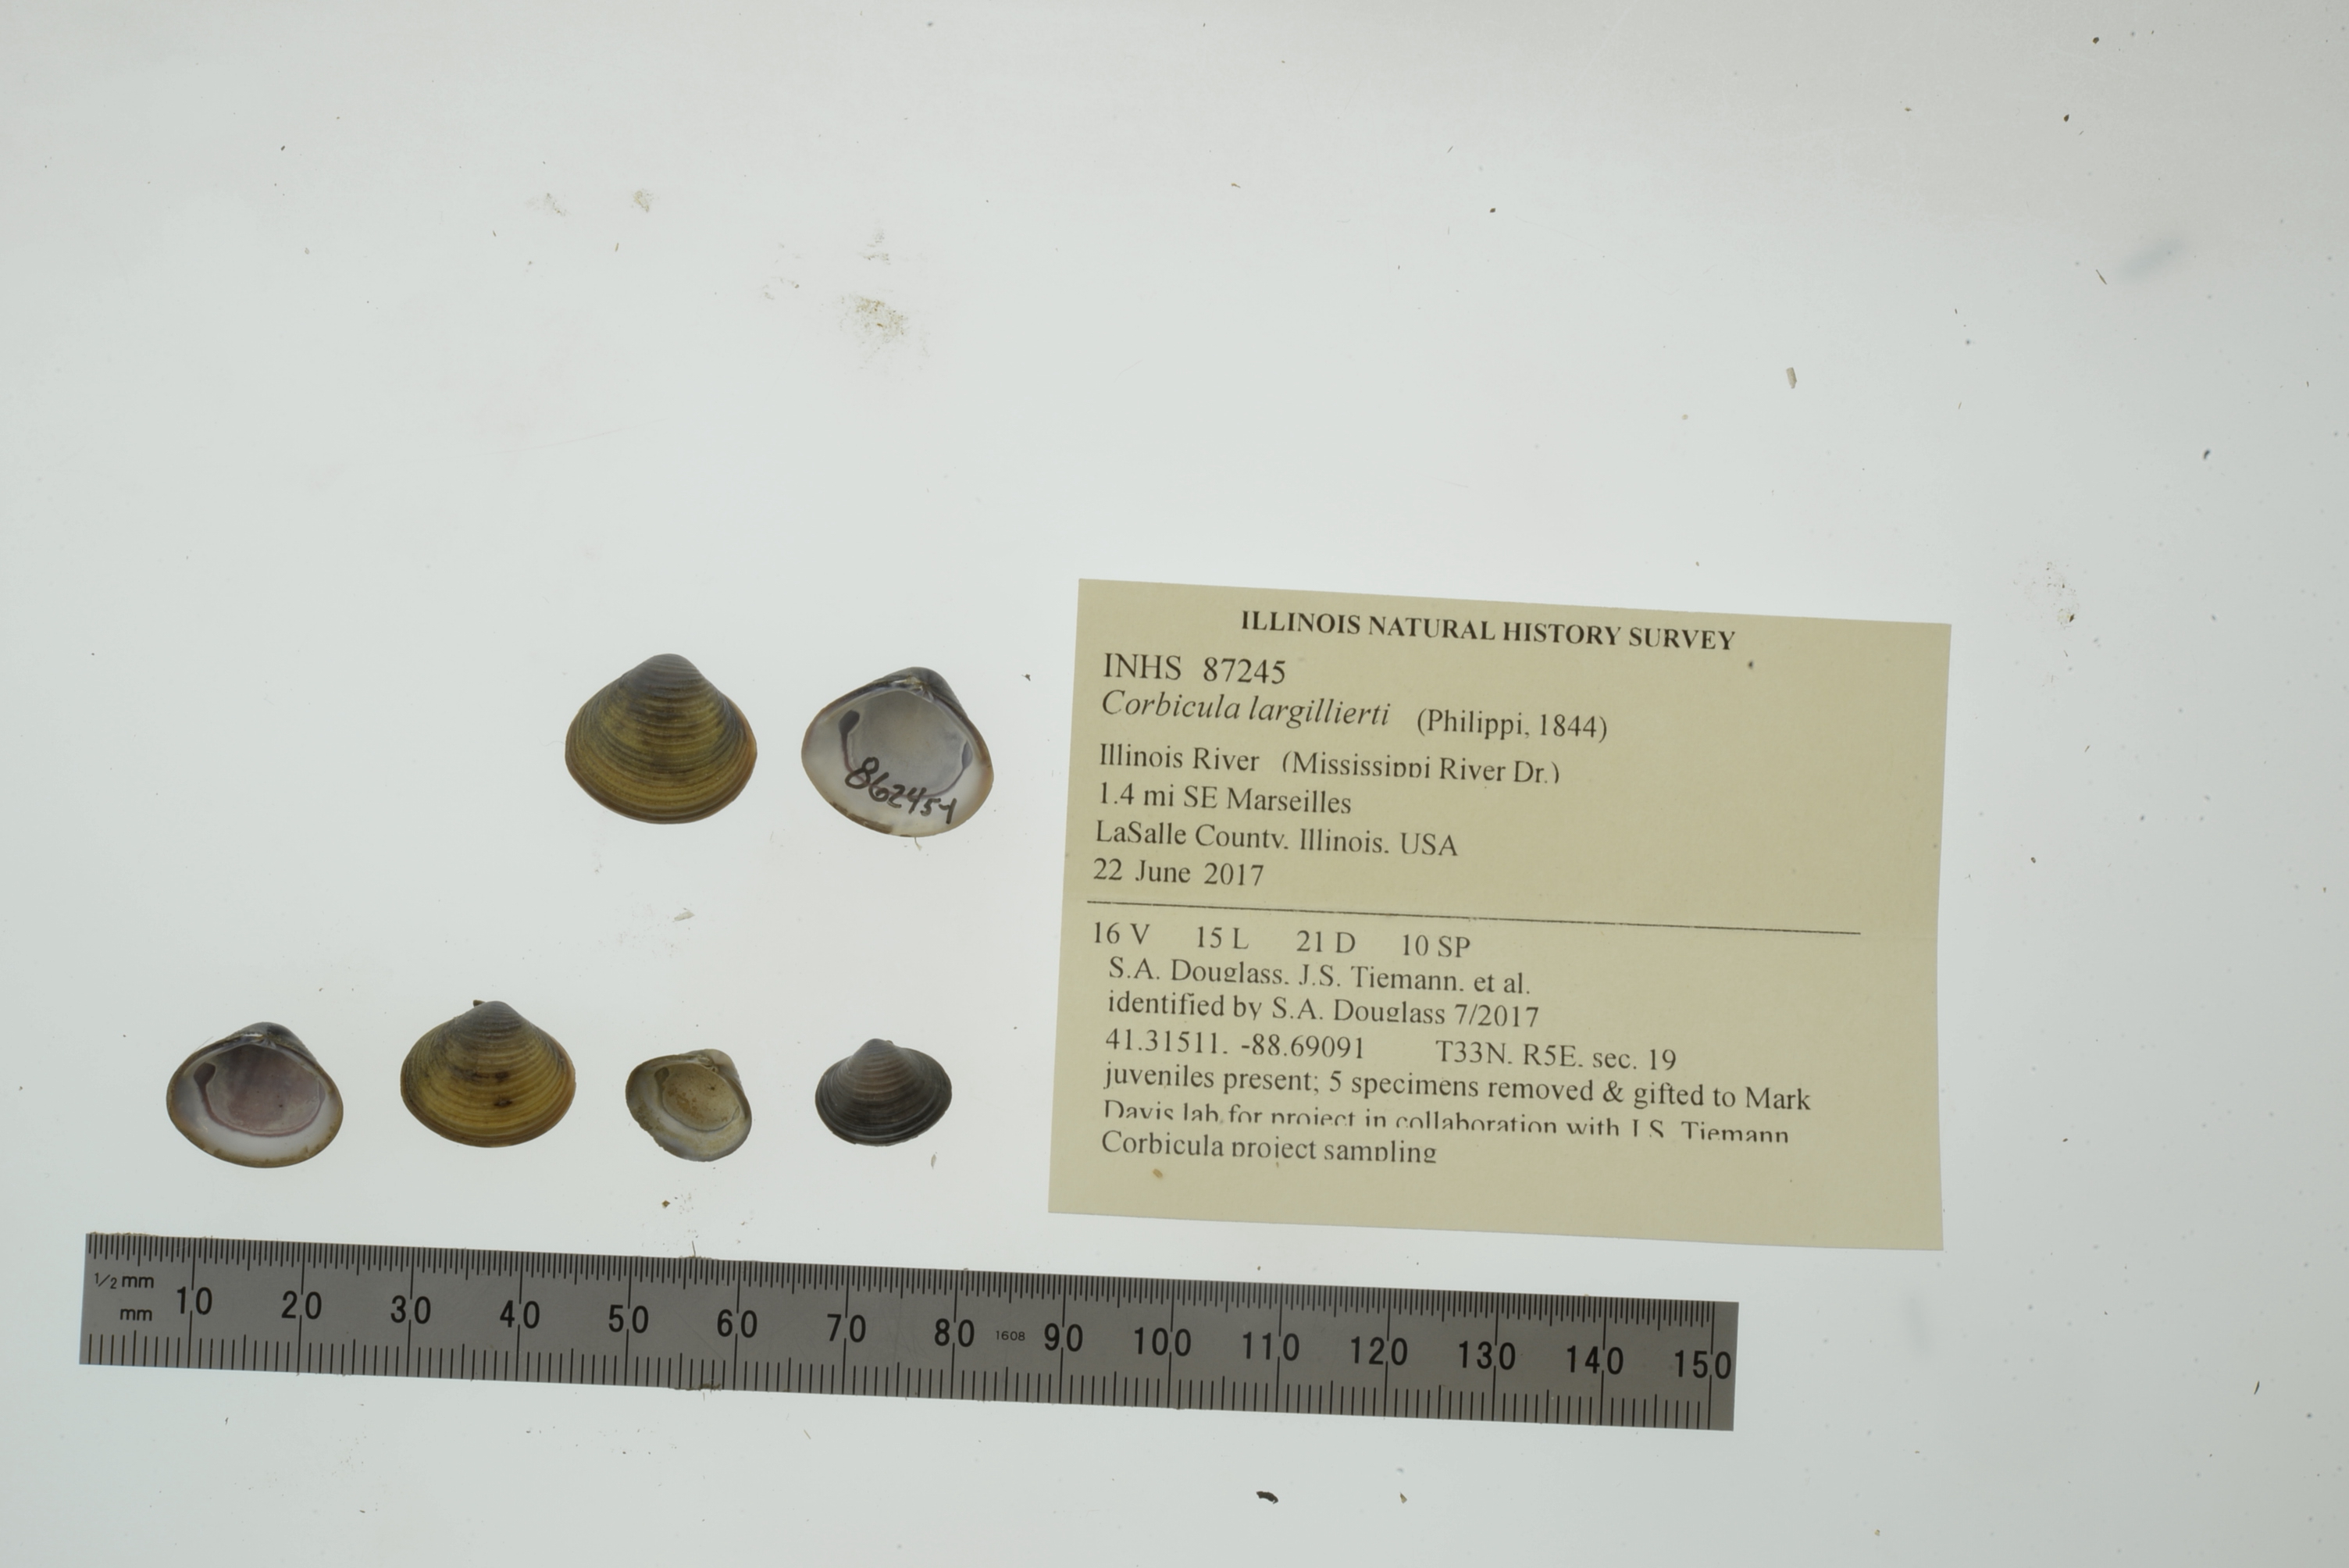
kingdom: Animalia
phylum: Mollusca
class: Bivalvia
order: Venerida
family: Cyrenidae
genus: Corbicula
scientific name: Corbicula largillierti
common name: Purple asian clam
